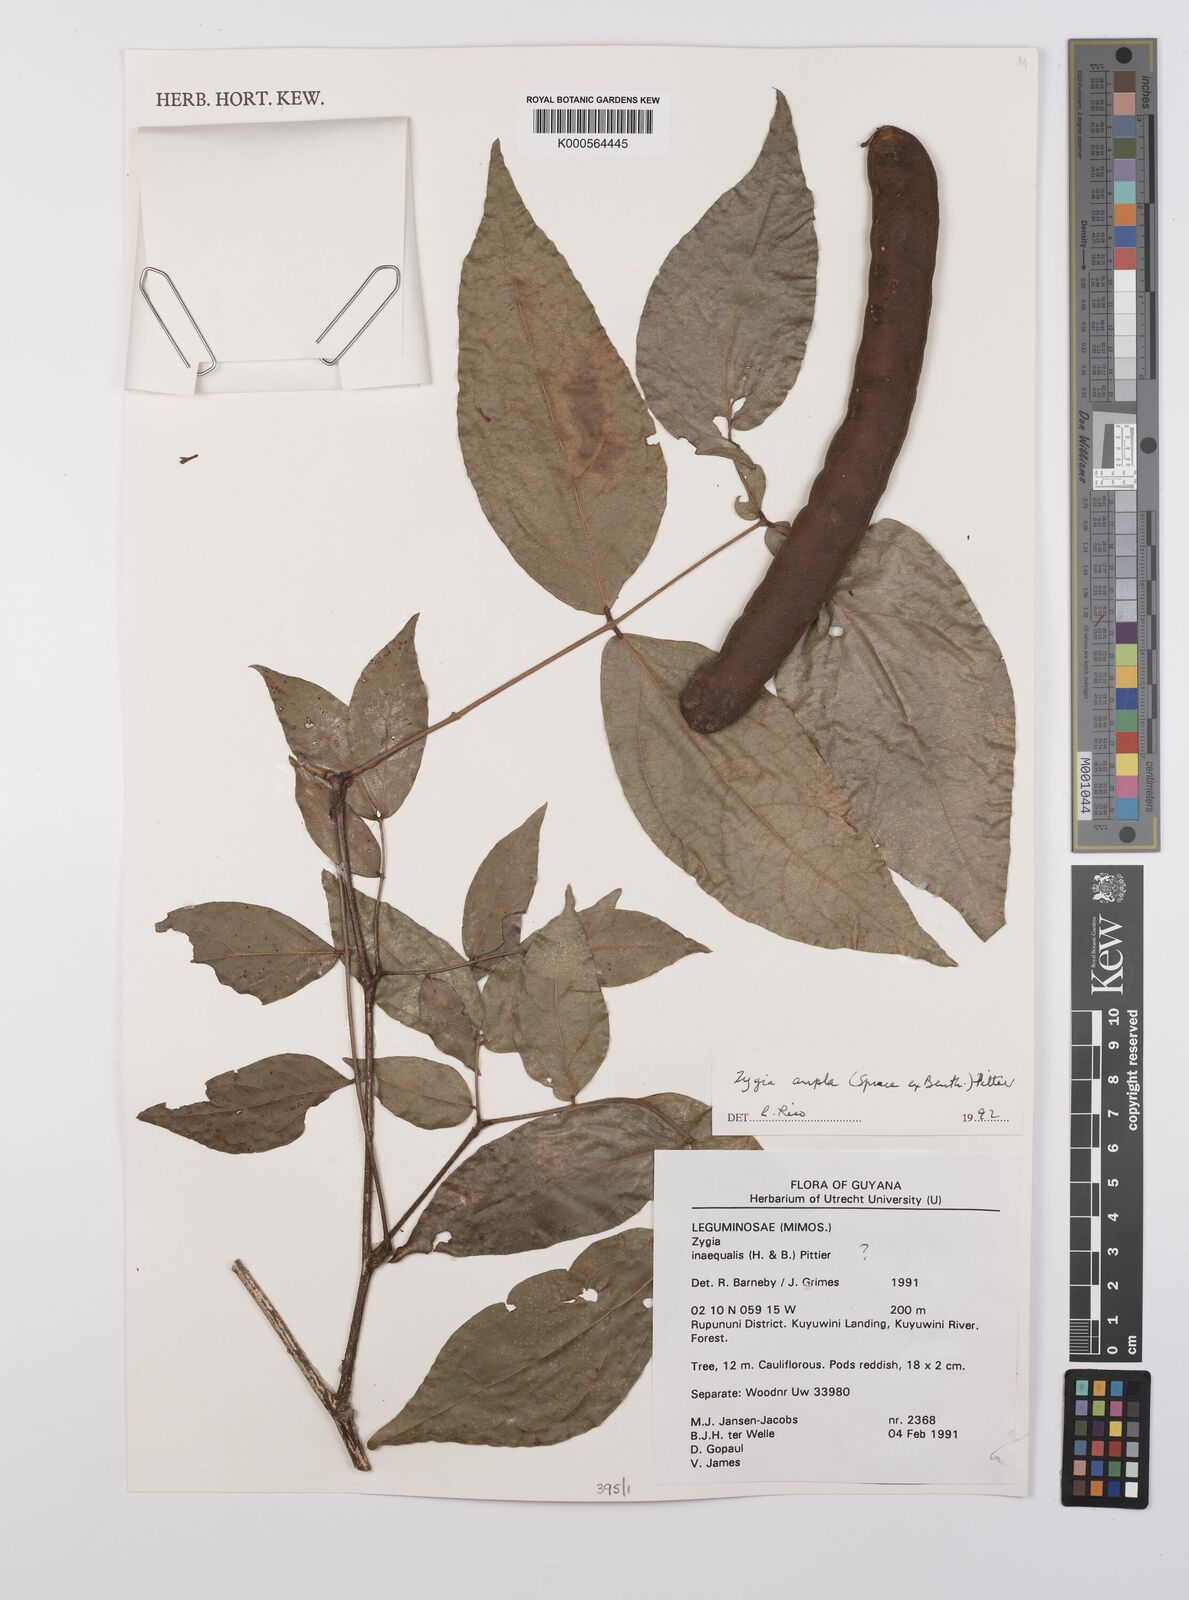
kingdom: Plantae
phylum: Tracheophyta
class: Magnoliopsida
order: Fabales
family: Fabaceae
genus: Zygia
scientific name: Zygia ampla
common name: Jarendeua de sapo
